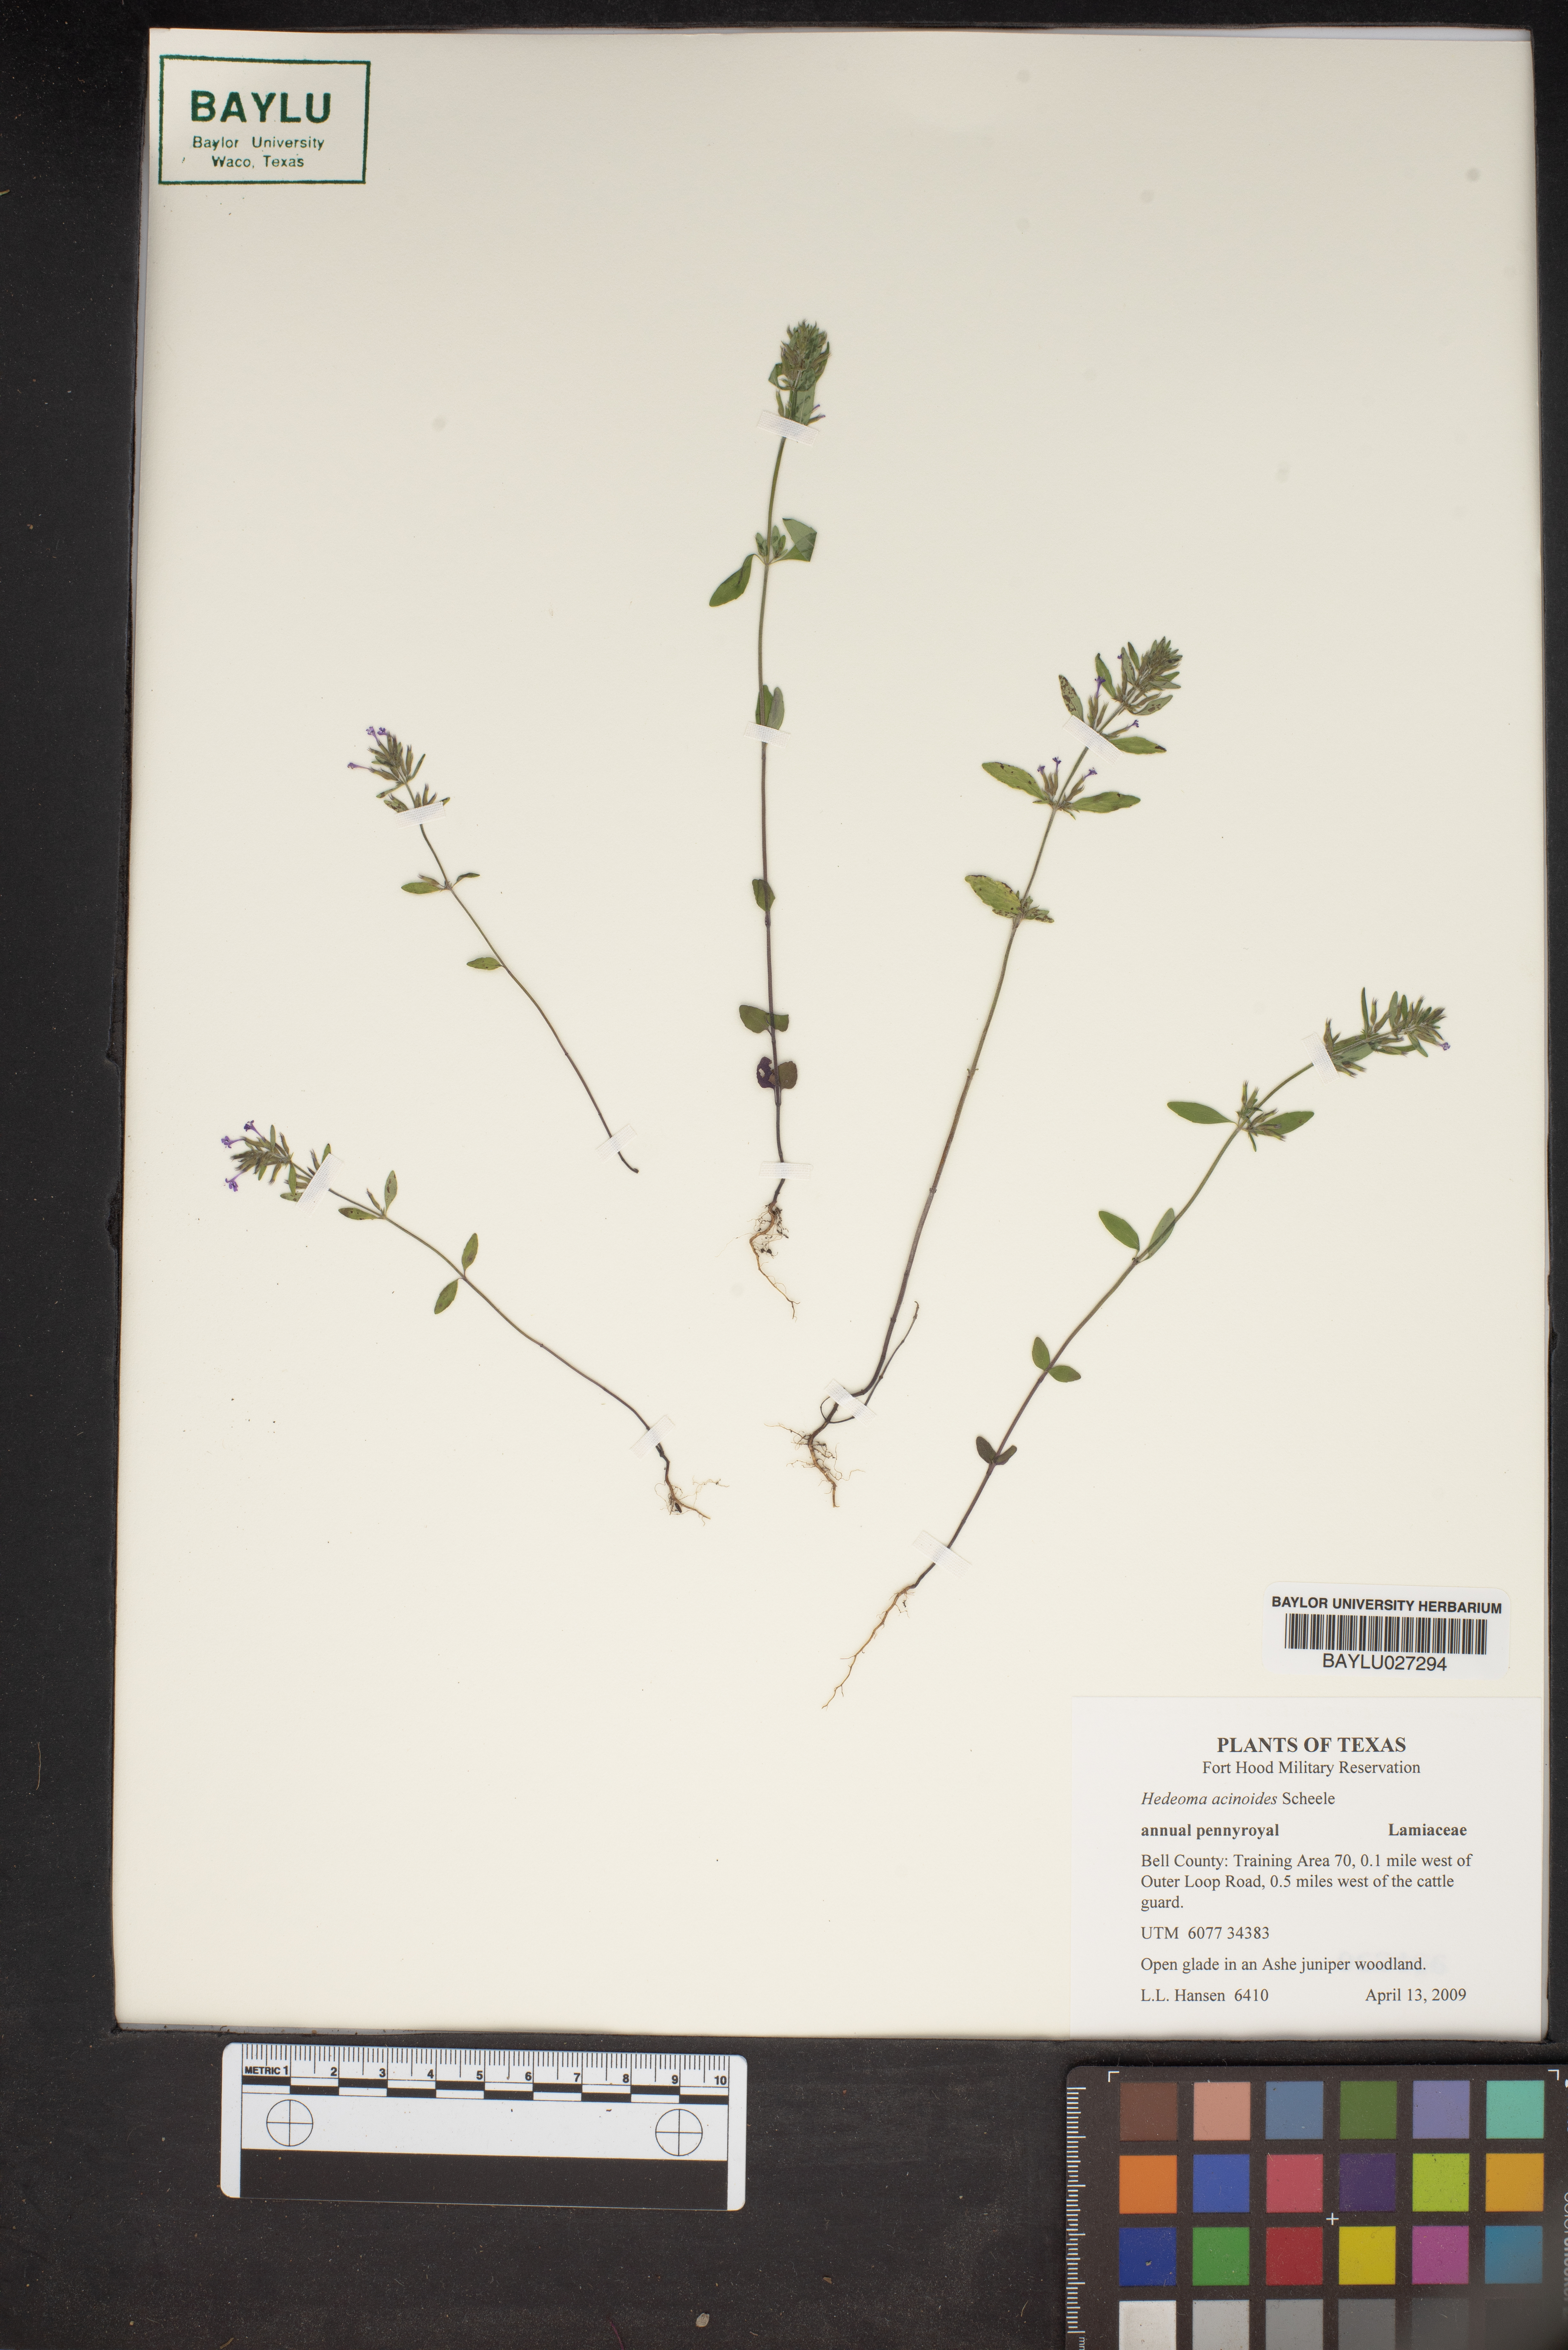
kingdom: Plantae
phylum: Tracheophyta
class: Magnoliopsida
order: Lamiales
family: Lamiaceae
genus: Hedeoma
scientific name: Hedeoma acinoides
